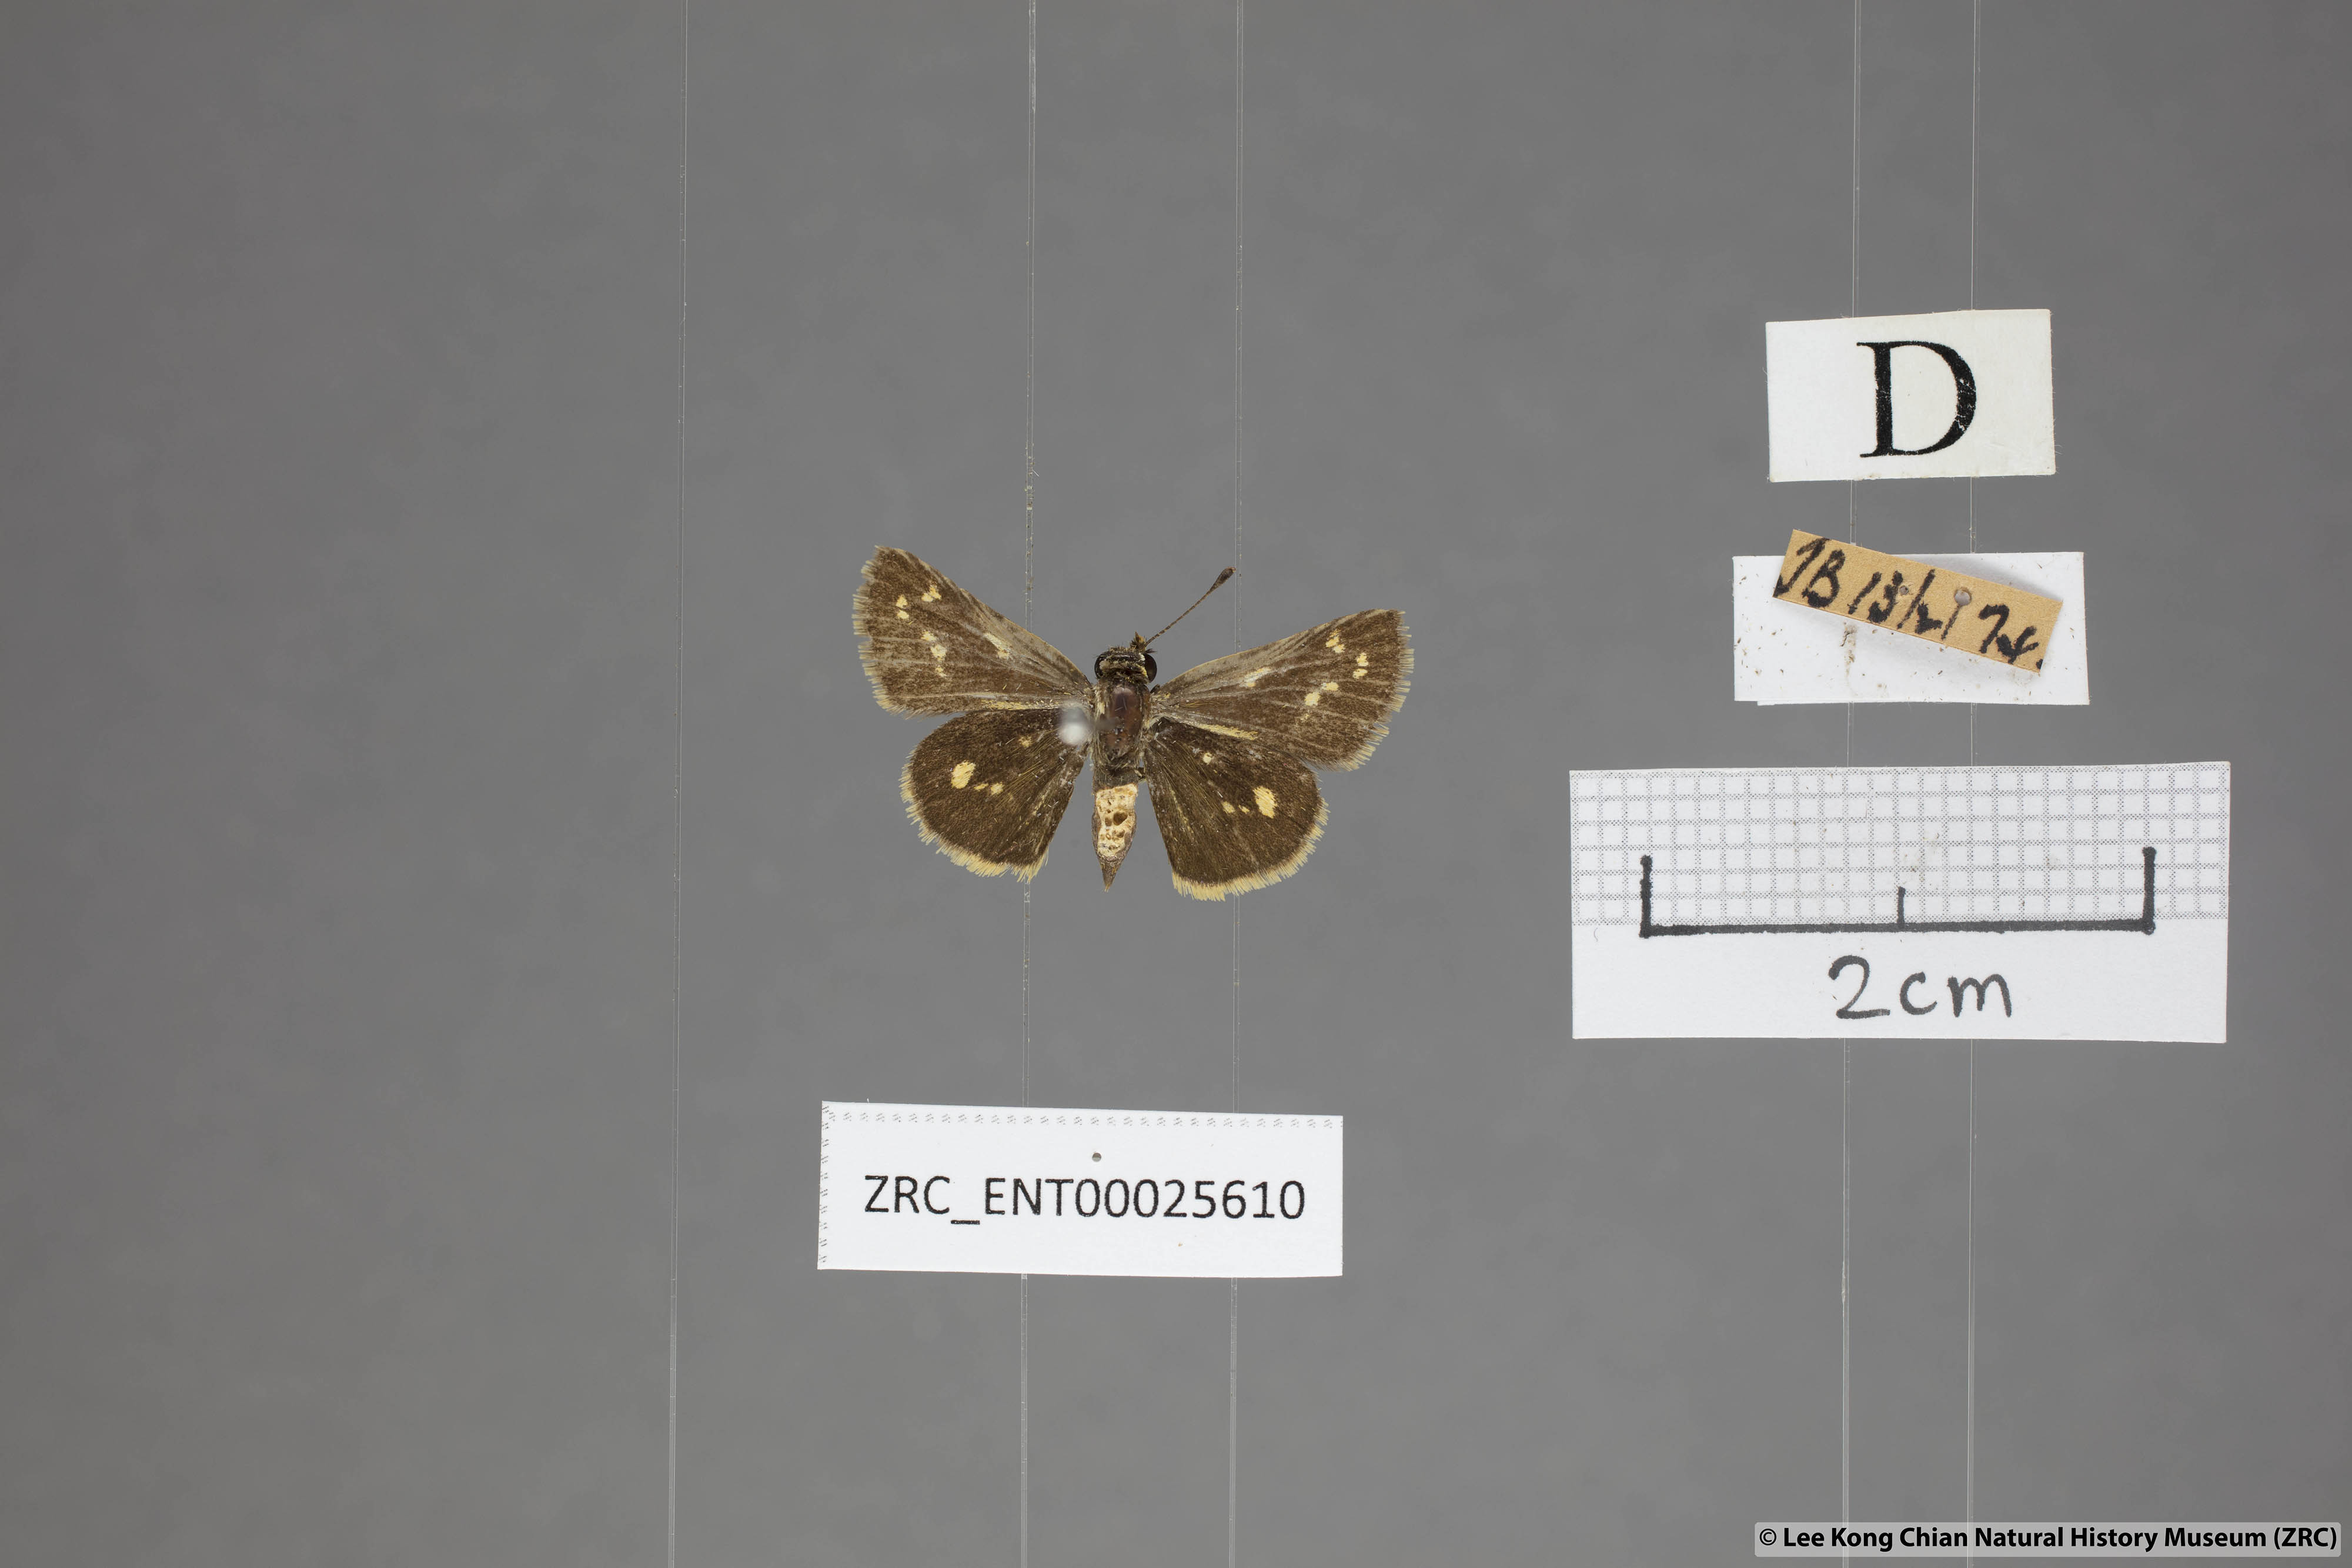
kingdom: Animalia
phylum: Arthropoda
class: Insecta
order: Lepidoptera
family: Hesperiidae
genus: Taractrocera
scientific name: Taractrocera ardonia
